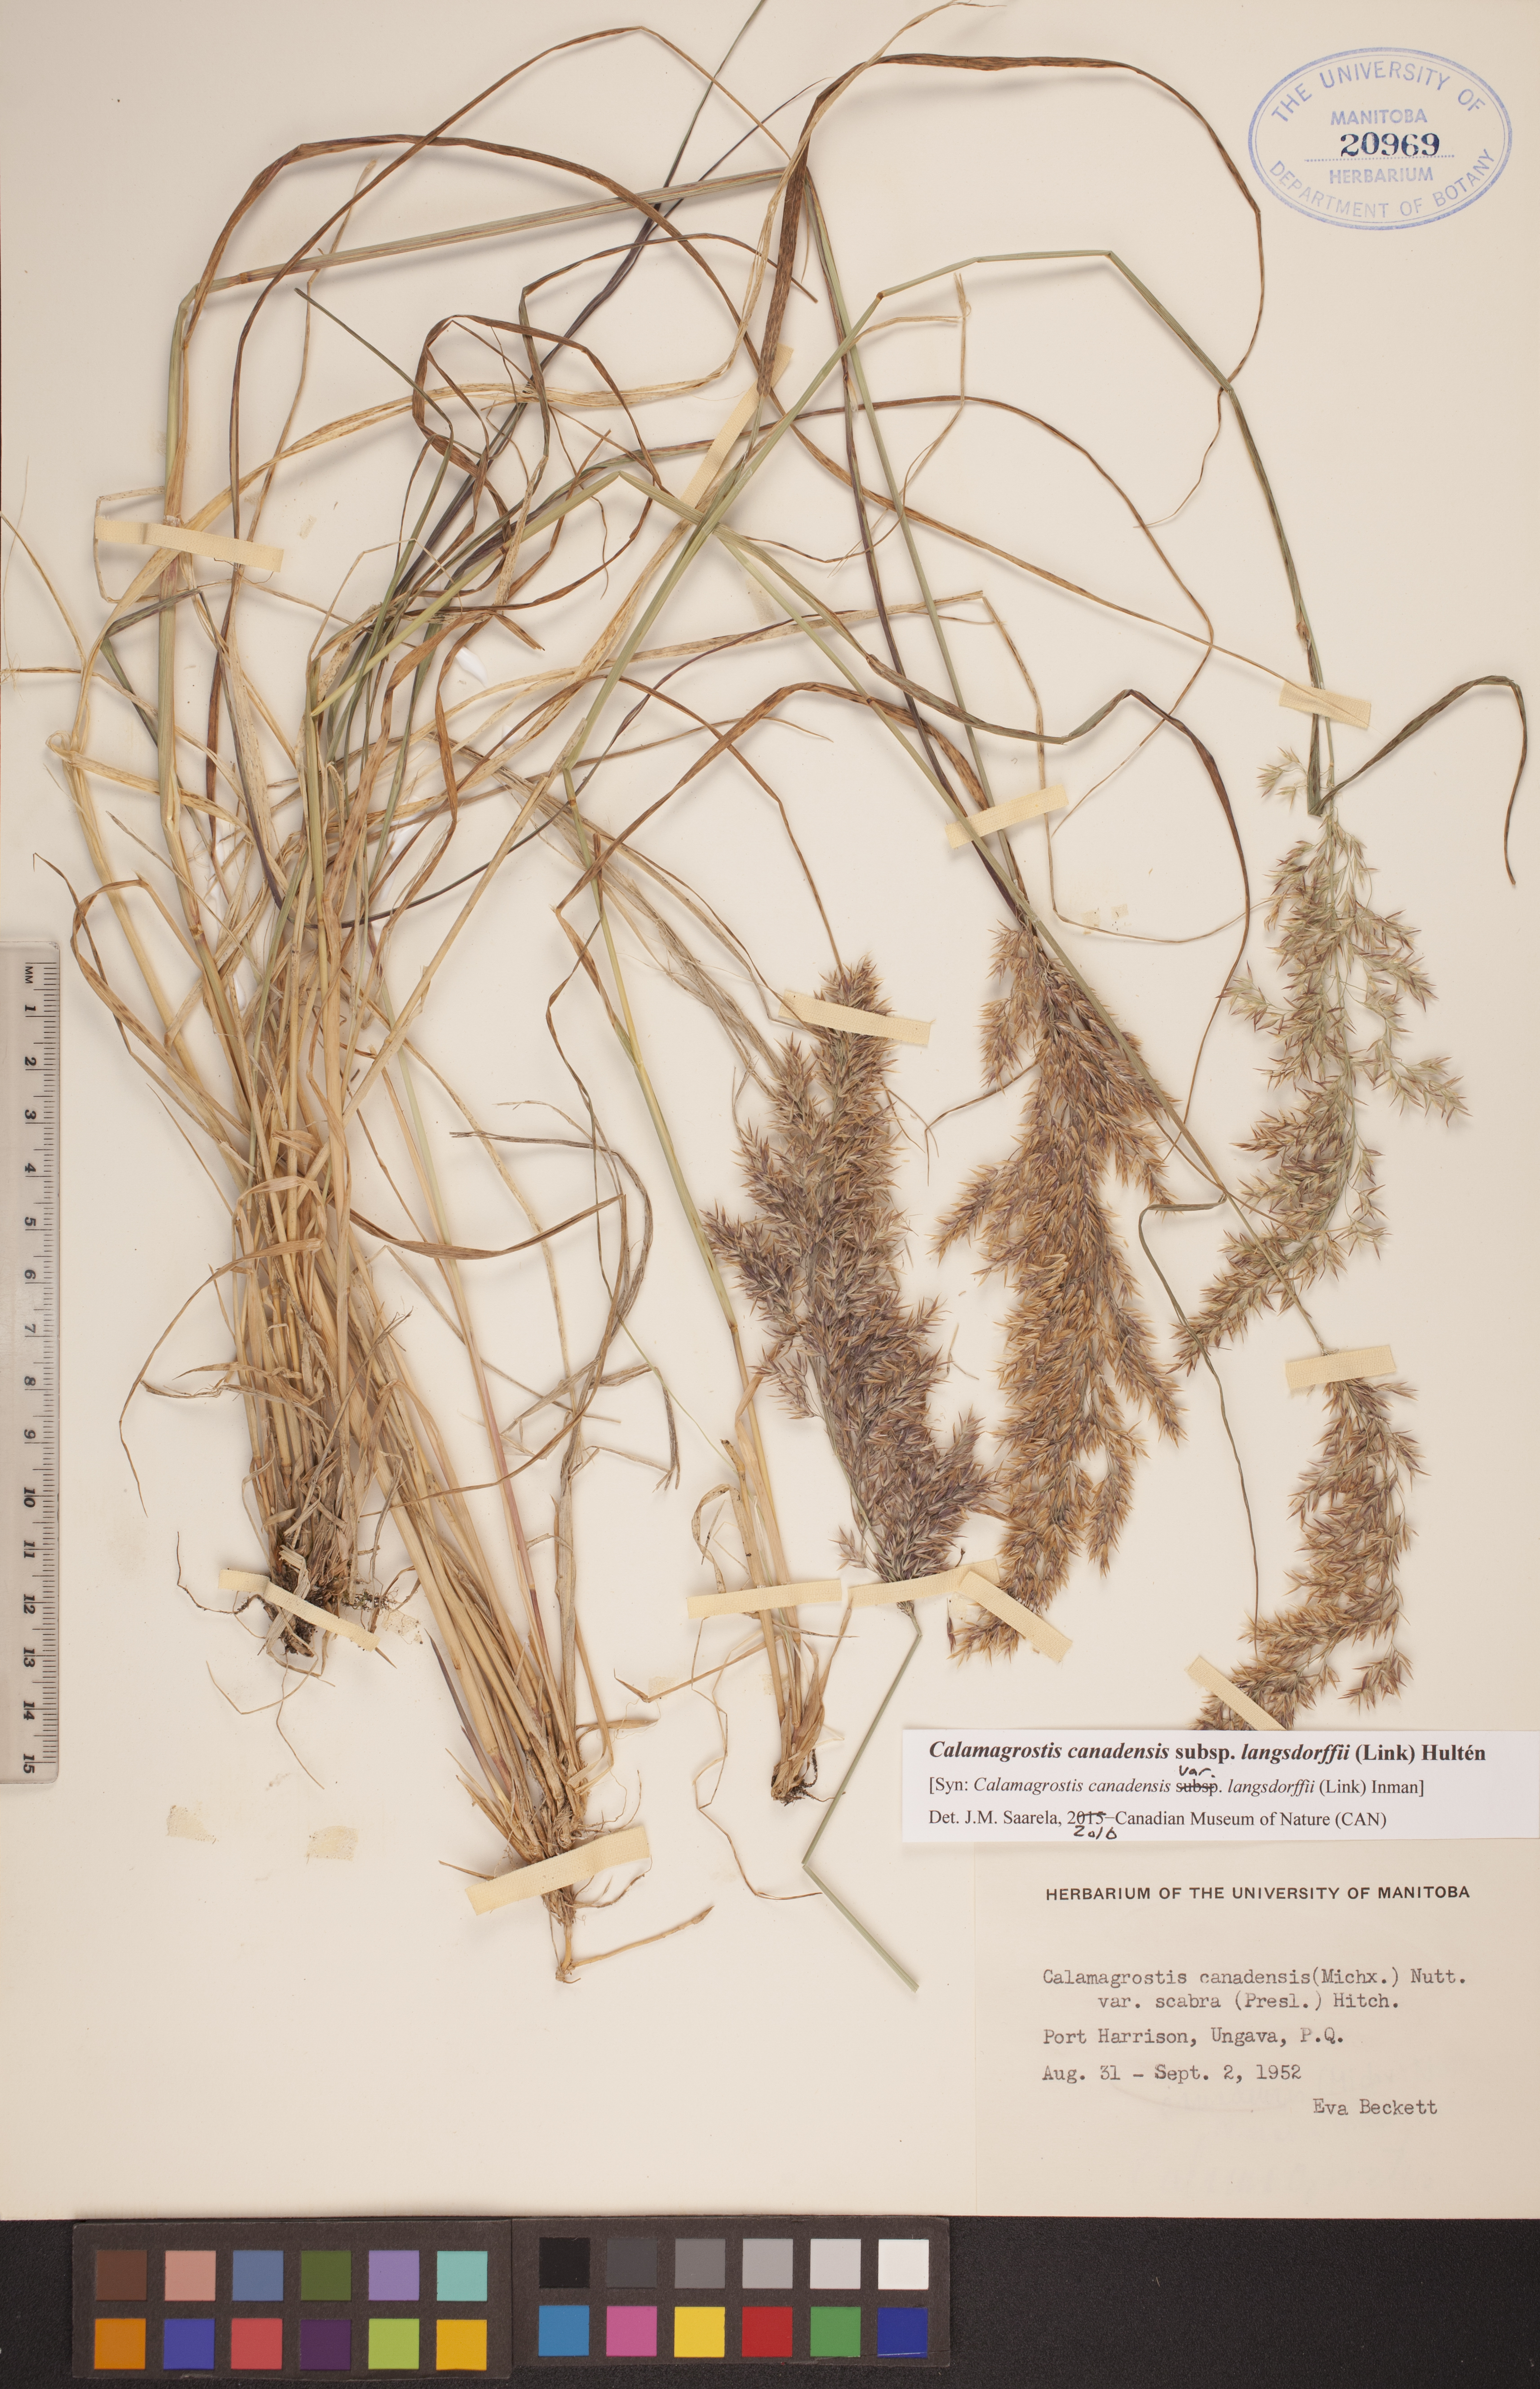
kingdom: Plantae
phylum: Tracheophyta
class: Liliopsida
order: Poales
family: Poaceae
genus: Calamagrostis
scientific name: Calamagrostis purpurea
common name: Scandinavian small-reed
